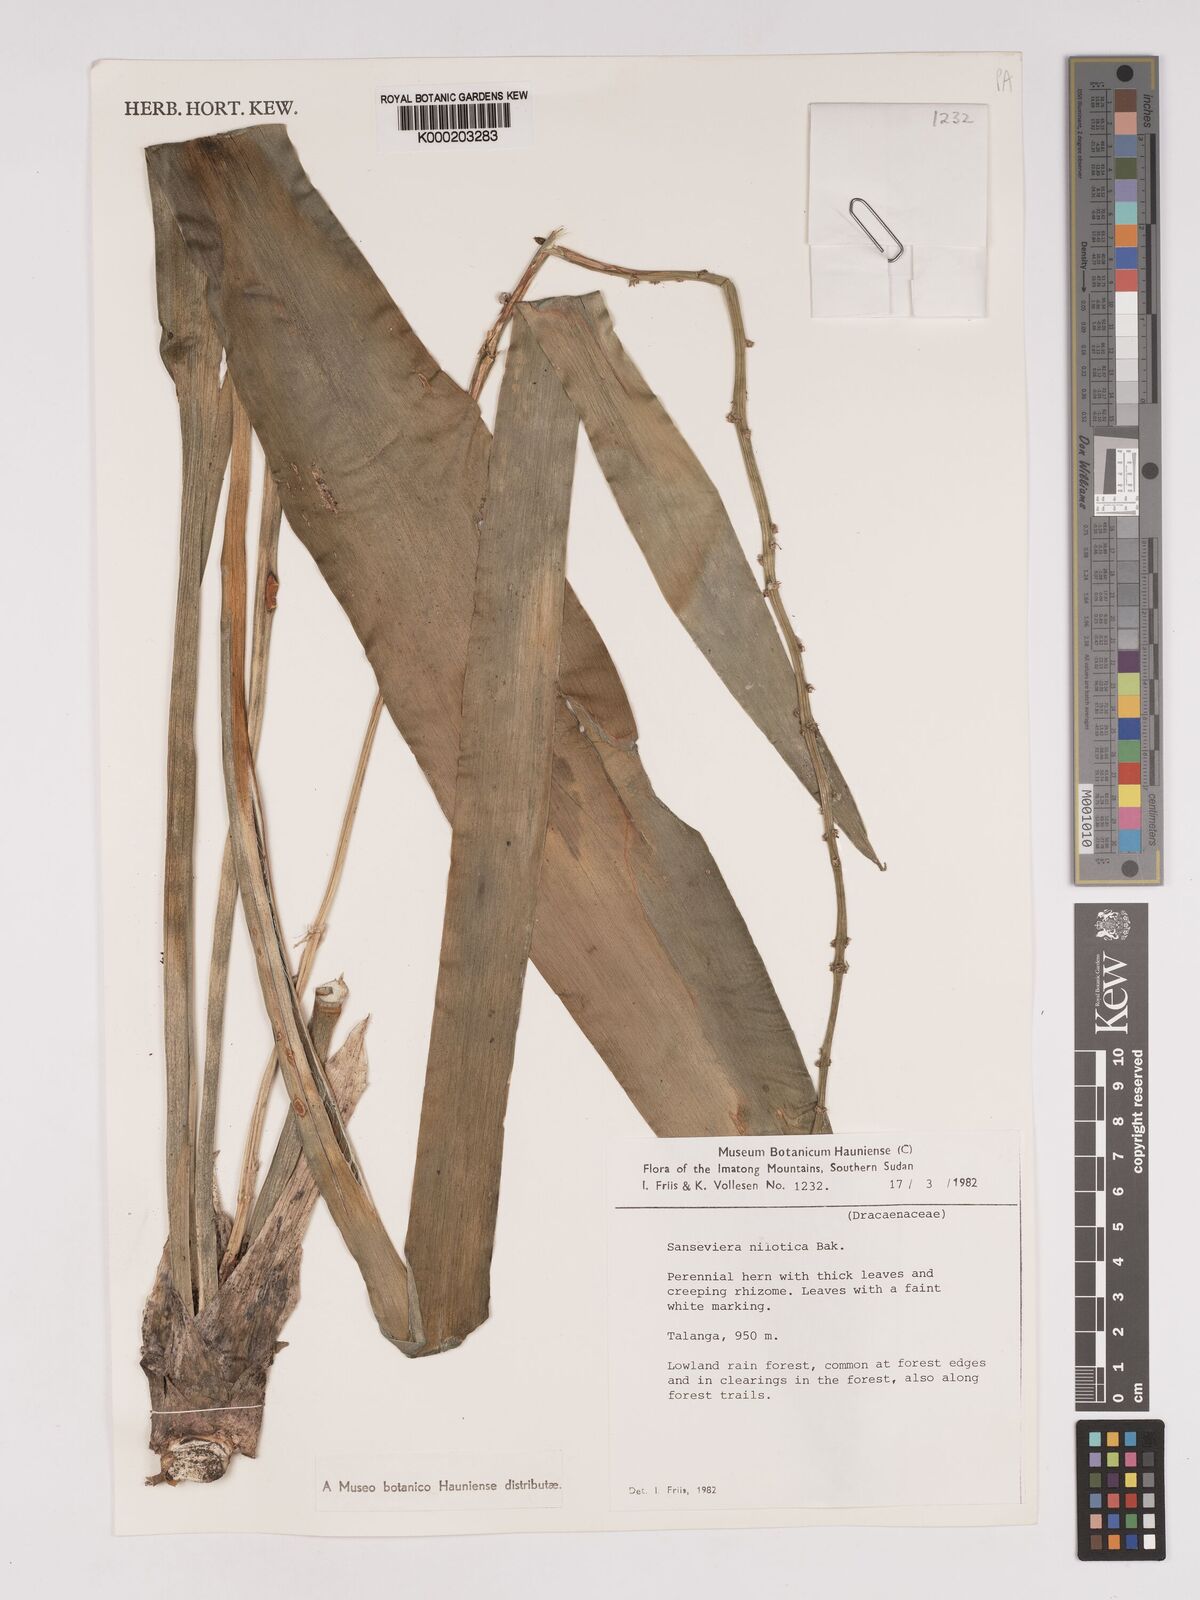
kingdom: Plantae
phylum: Tracheophyta
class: Liliopsida
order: Asparagales
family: Asparagaceae
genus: Dracaena
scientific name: Dracaena nilotica
